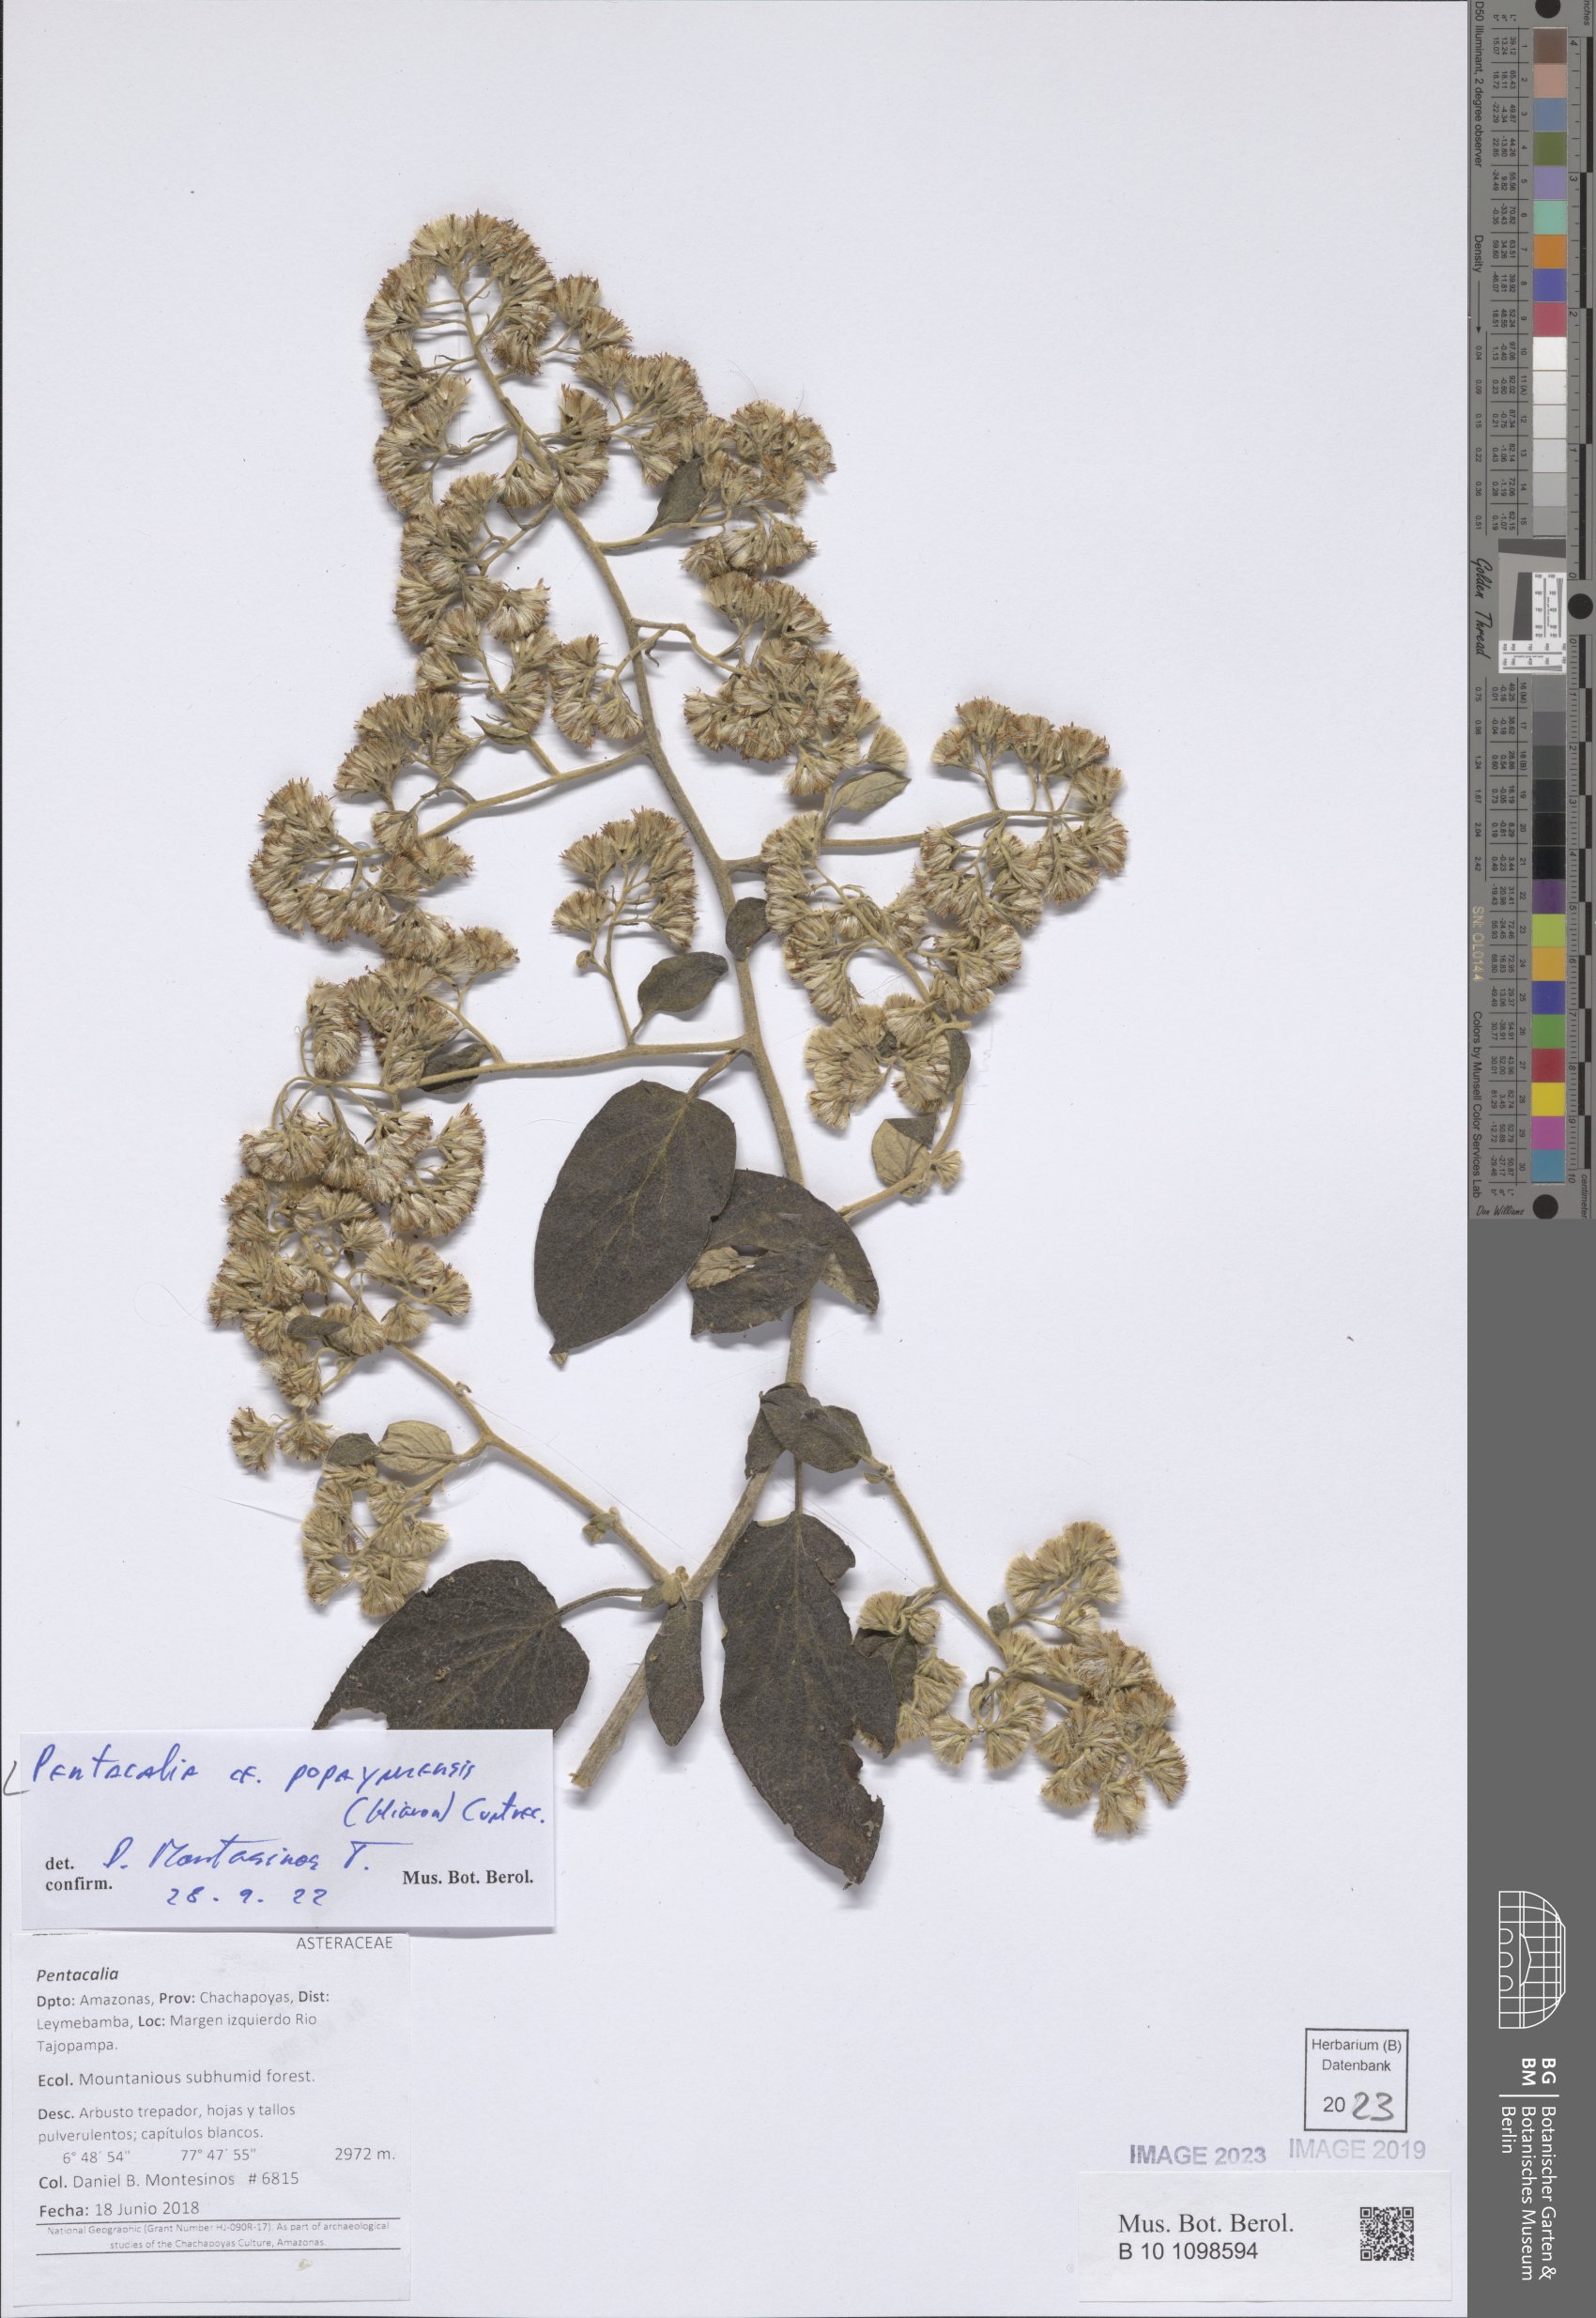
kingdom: Plantae
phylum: Tracheophyta
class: Magnoliopsida
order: Asterales
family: Asteraceae
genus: Pentacalia
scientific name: Pentacalia popayanensis
